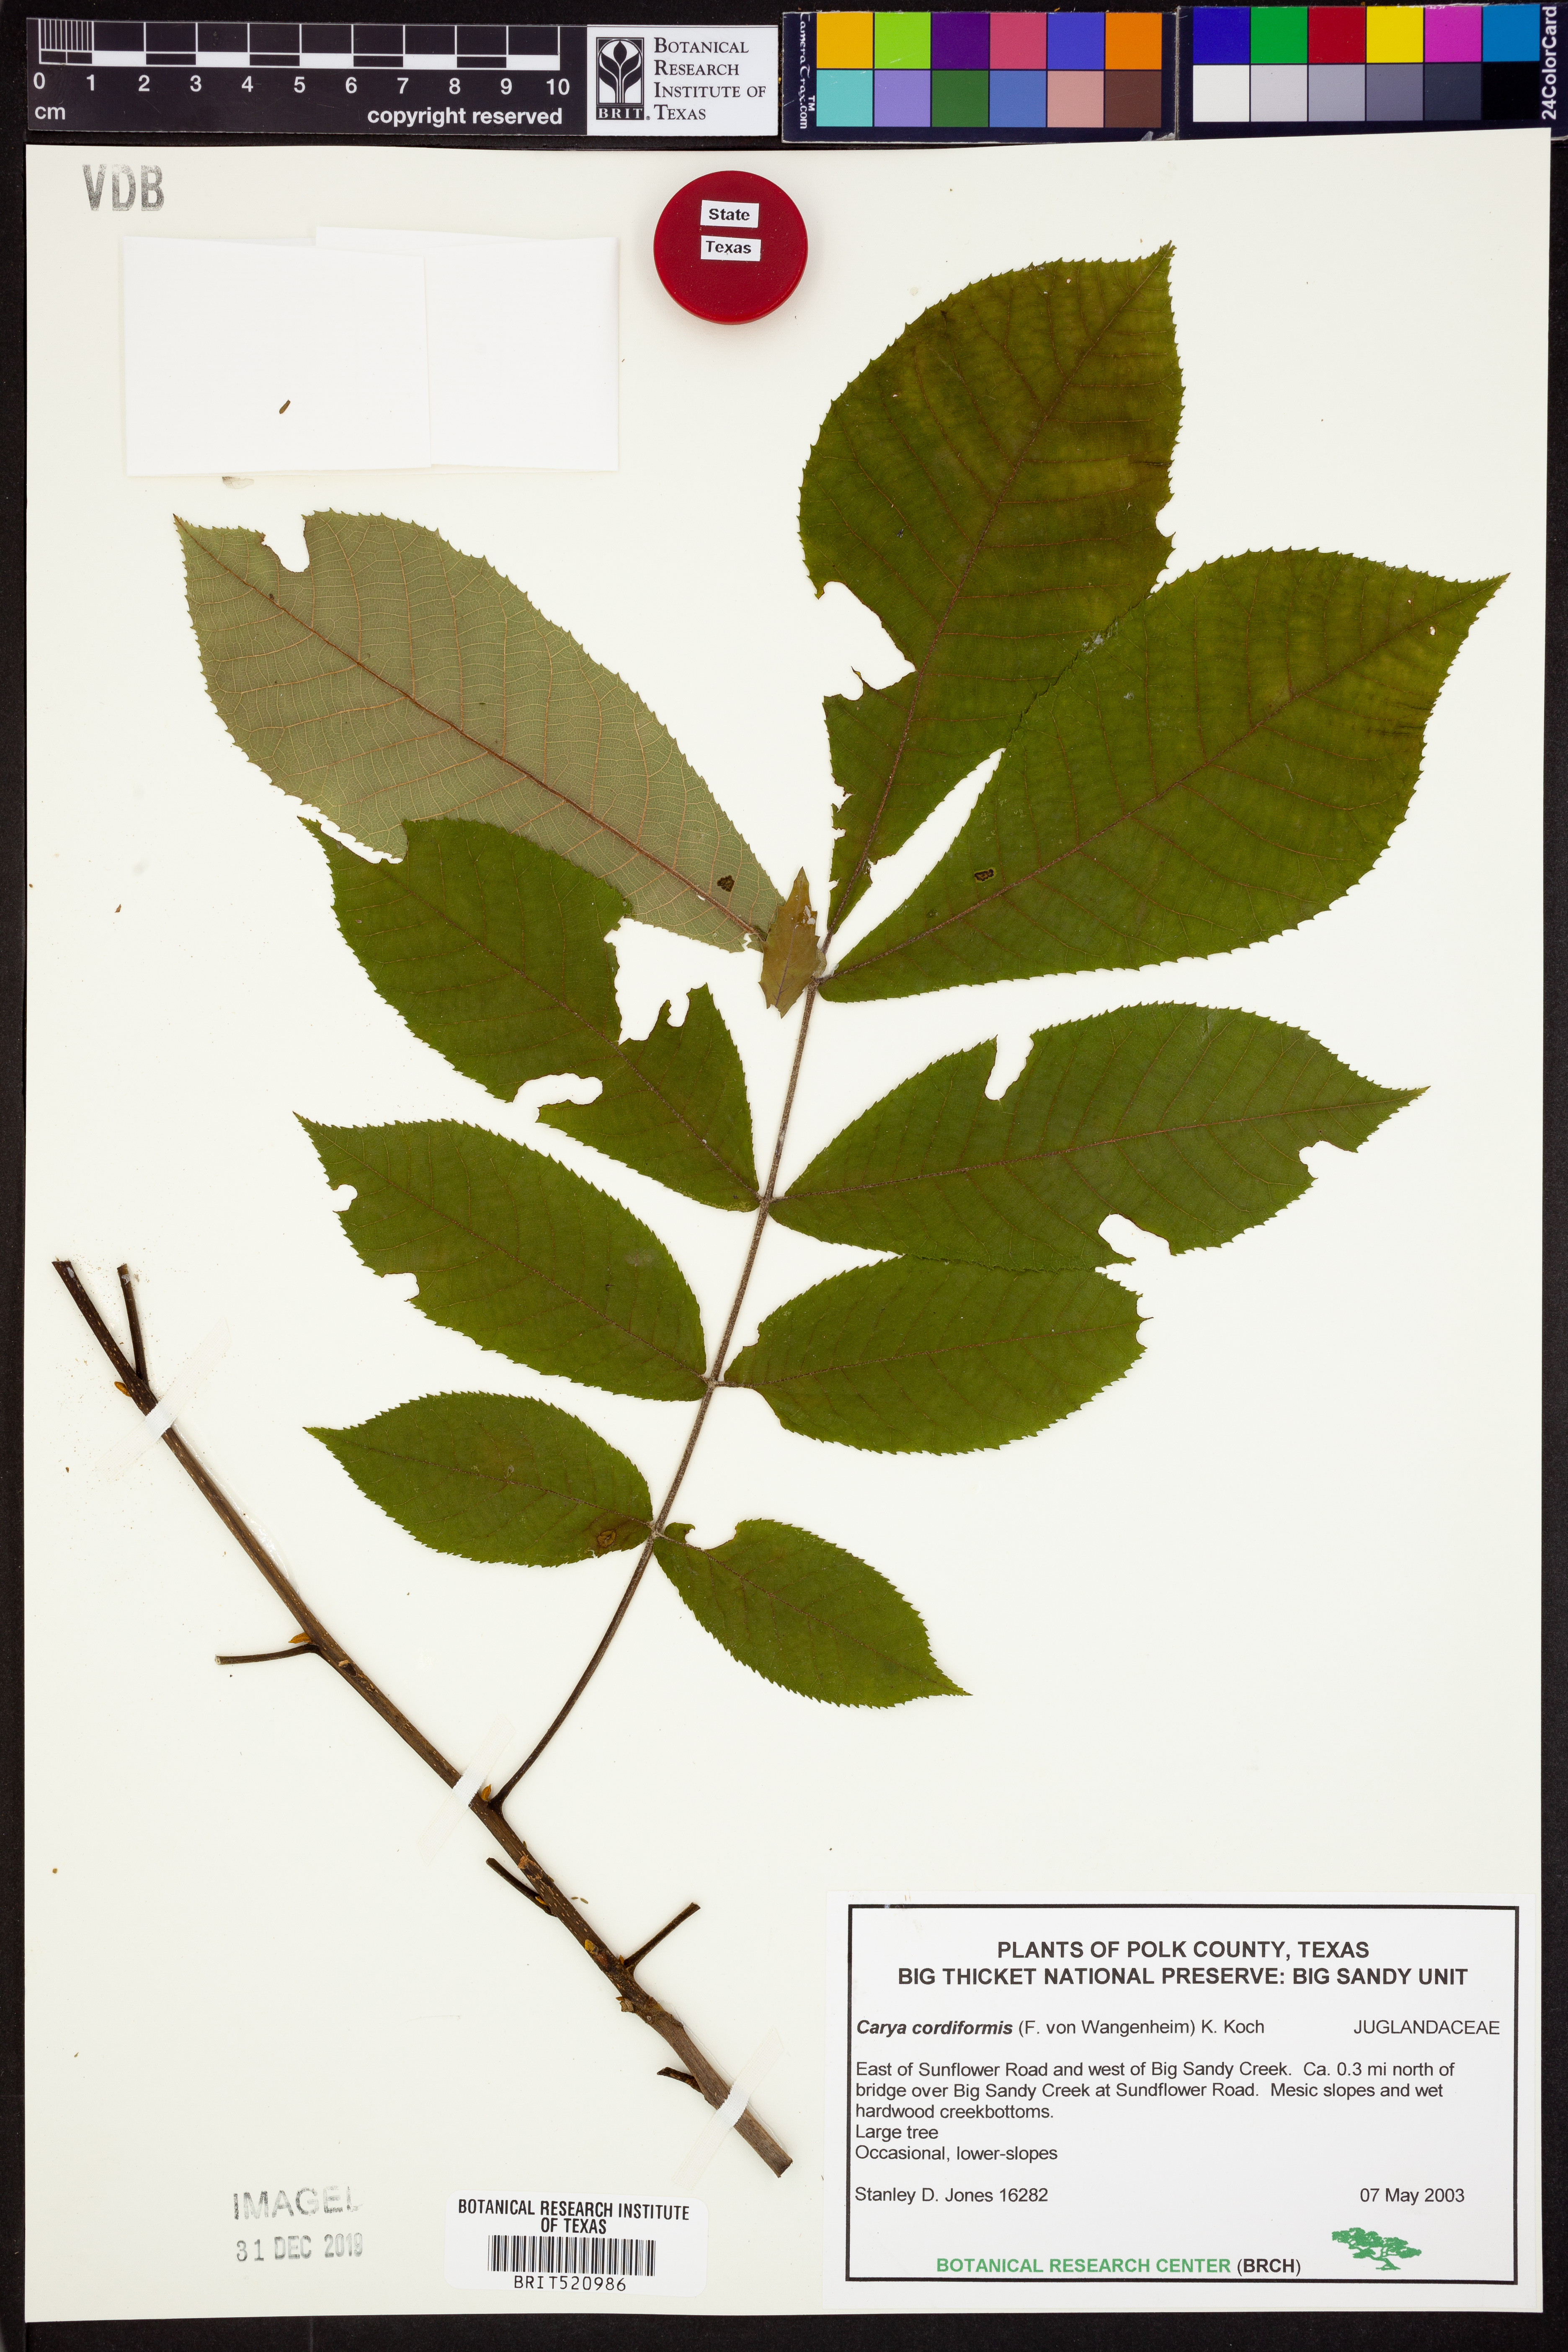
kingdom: Plantae
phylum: Tracheophyta
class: Magnoliopsida
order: Fagales
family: Juglandaceae
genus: Carya
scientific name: Carya cordiformis
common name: Bitternut hickory
